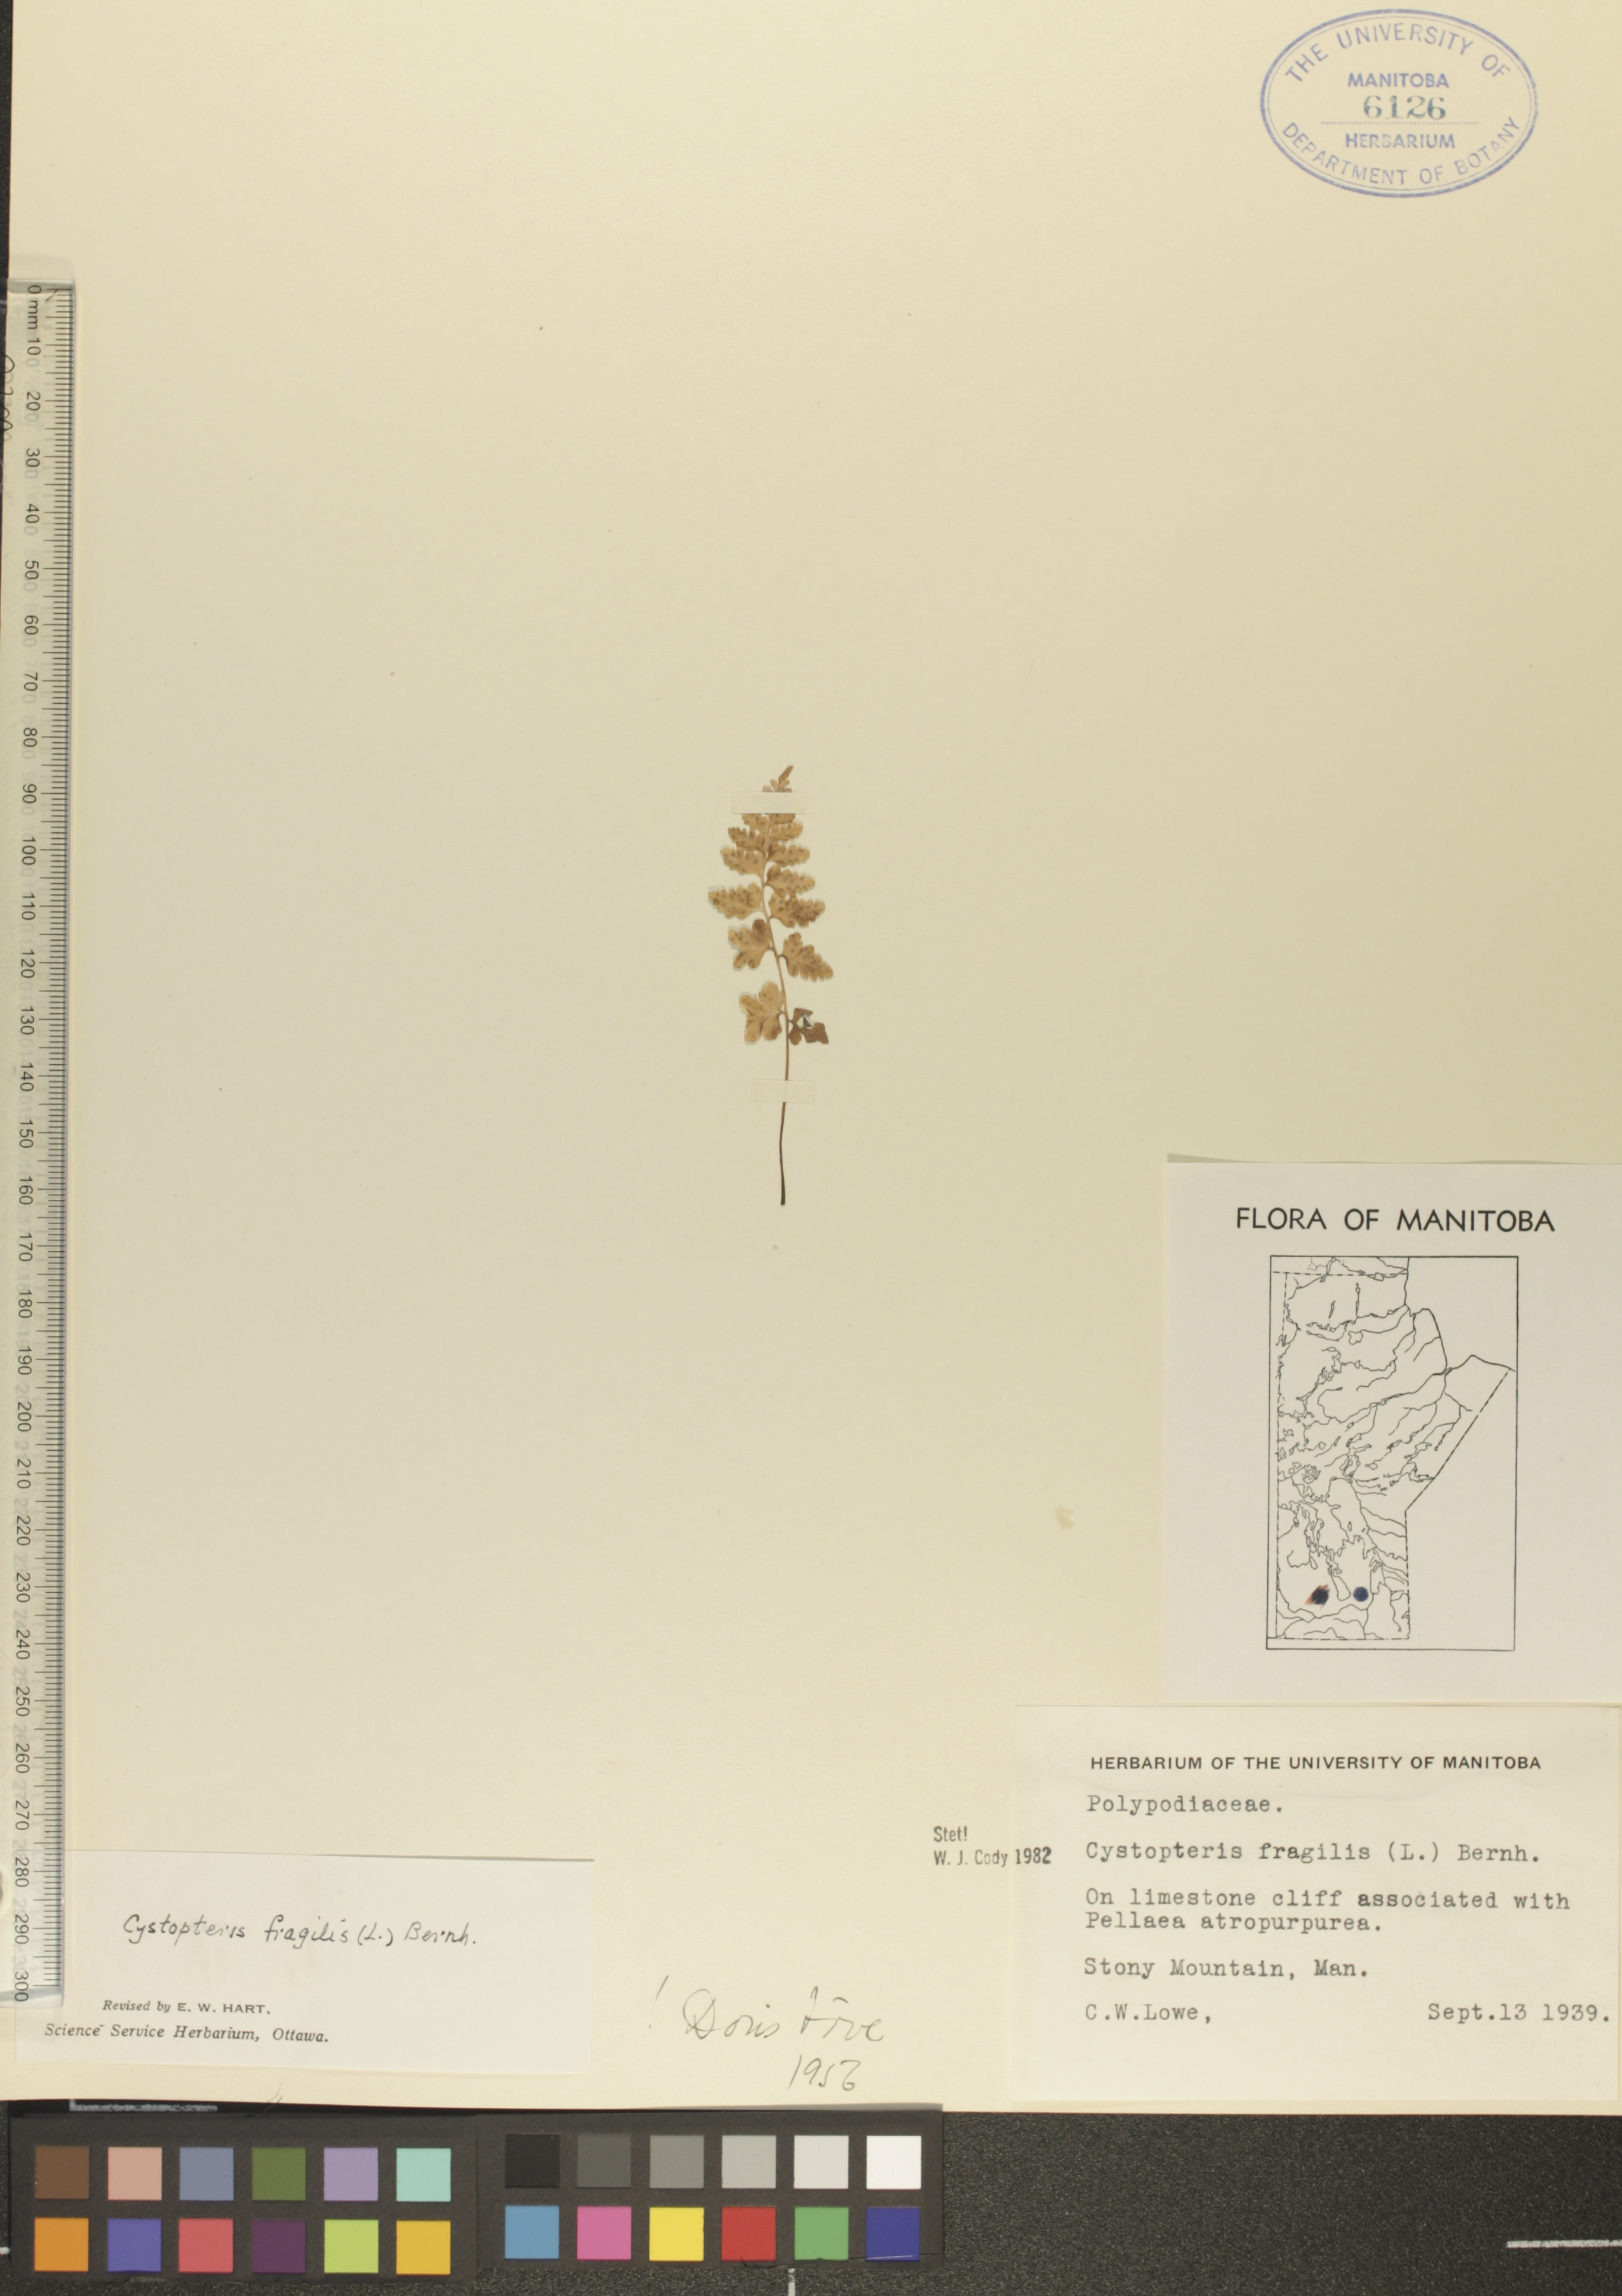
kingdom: Plantae
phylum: Tracheophyta
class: Polypodiopsida
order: Polypodiales
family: Cystopteridaceae
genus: Cystopteris
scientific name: Cystopteris fragilis
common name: Brittle bladder fern
